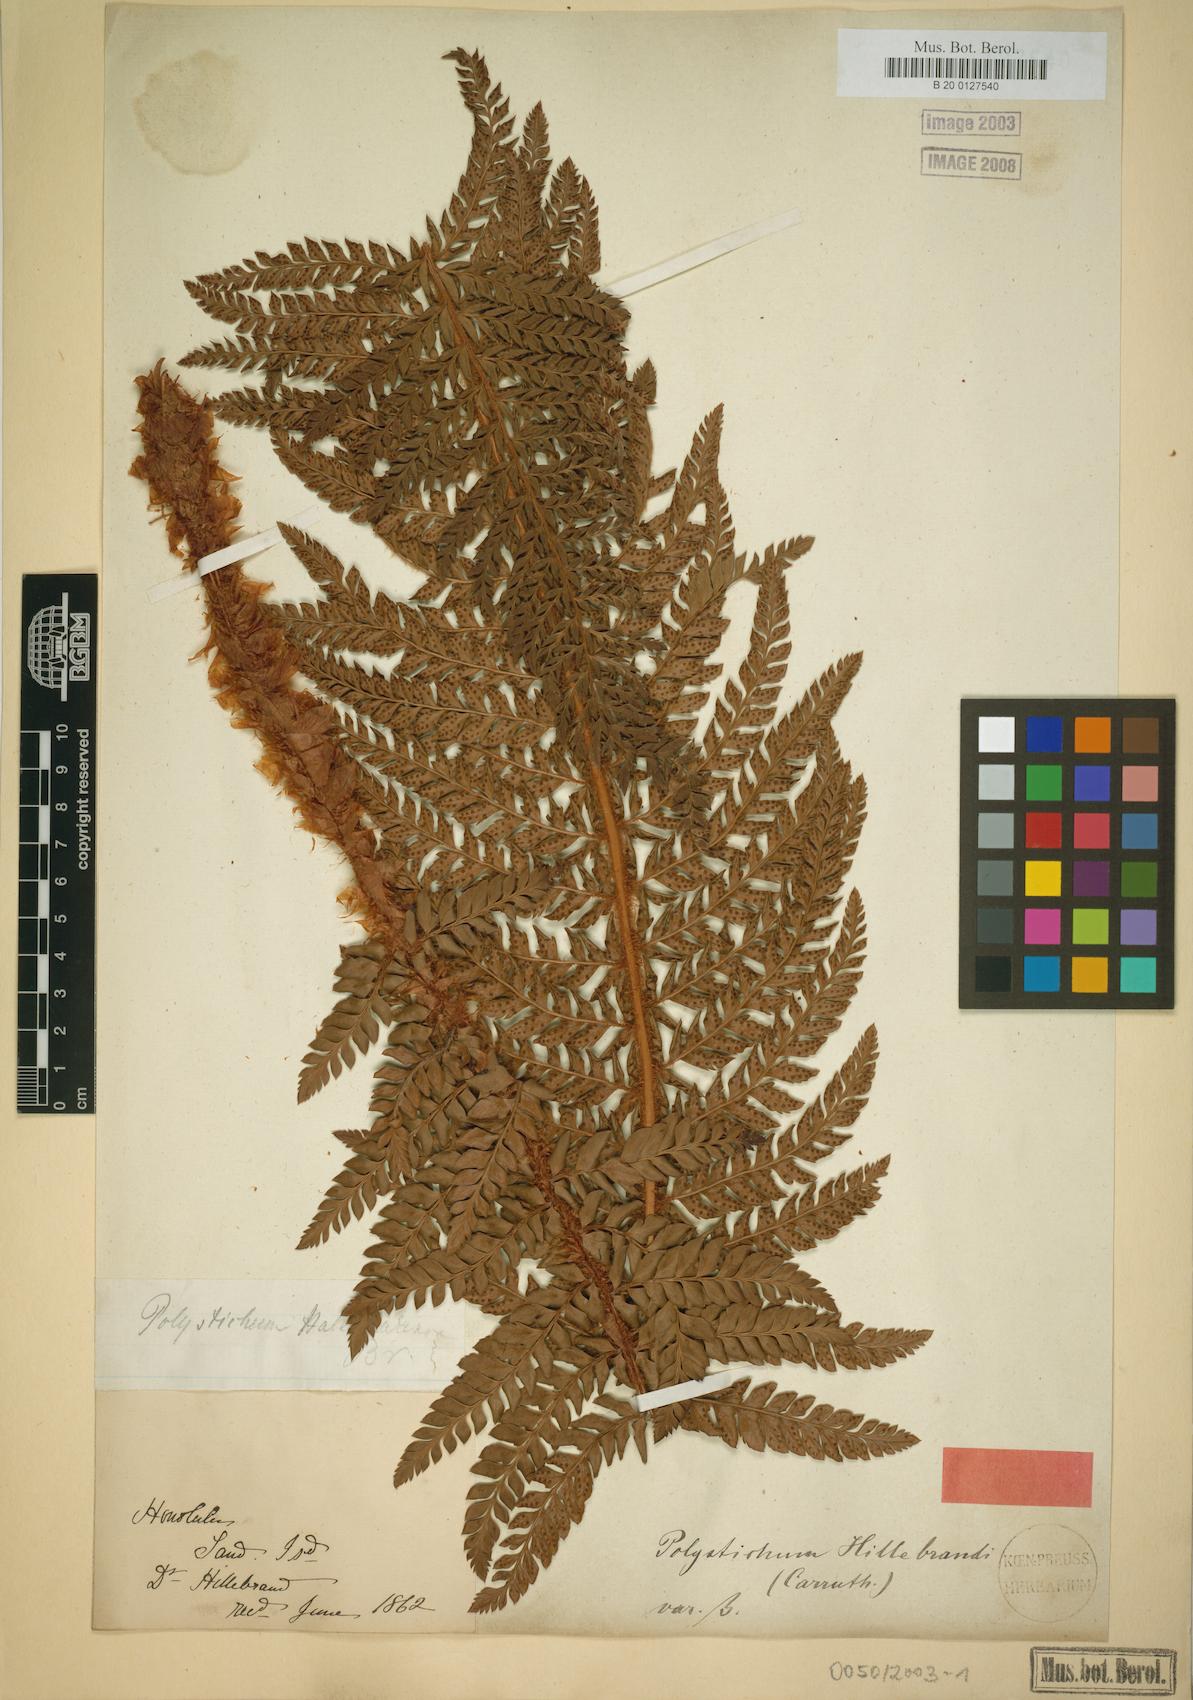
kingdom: Plantae
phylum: Tracheophyta
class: Polypodiopsida
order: Polypodiales
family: Dryopteridaceae
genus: Polystichum
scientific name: Polystichum hillebrandii
